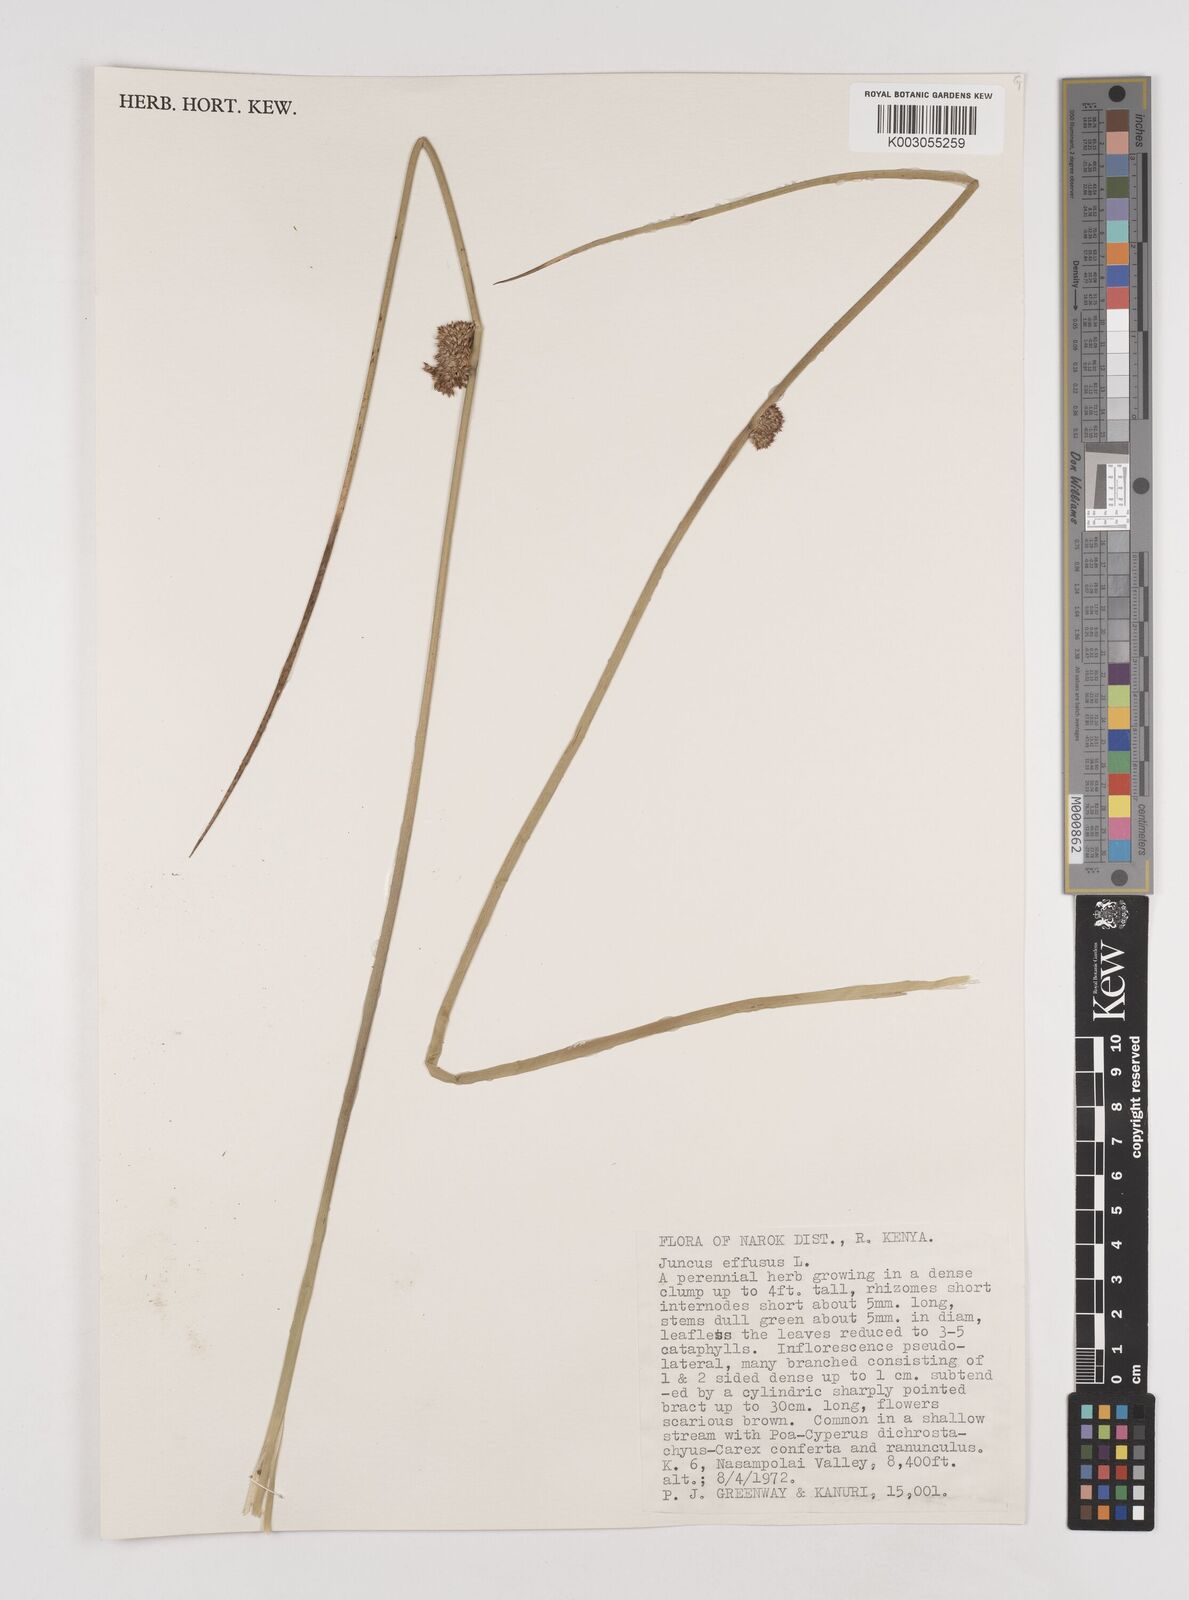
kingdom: Plantae
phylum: Tracheophyta
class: Liliopsida
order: Poales
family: Juncaceae
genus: Juncus
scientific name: Juncus effusus
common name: Soft rush
